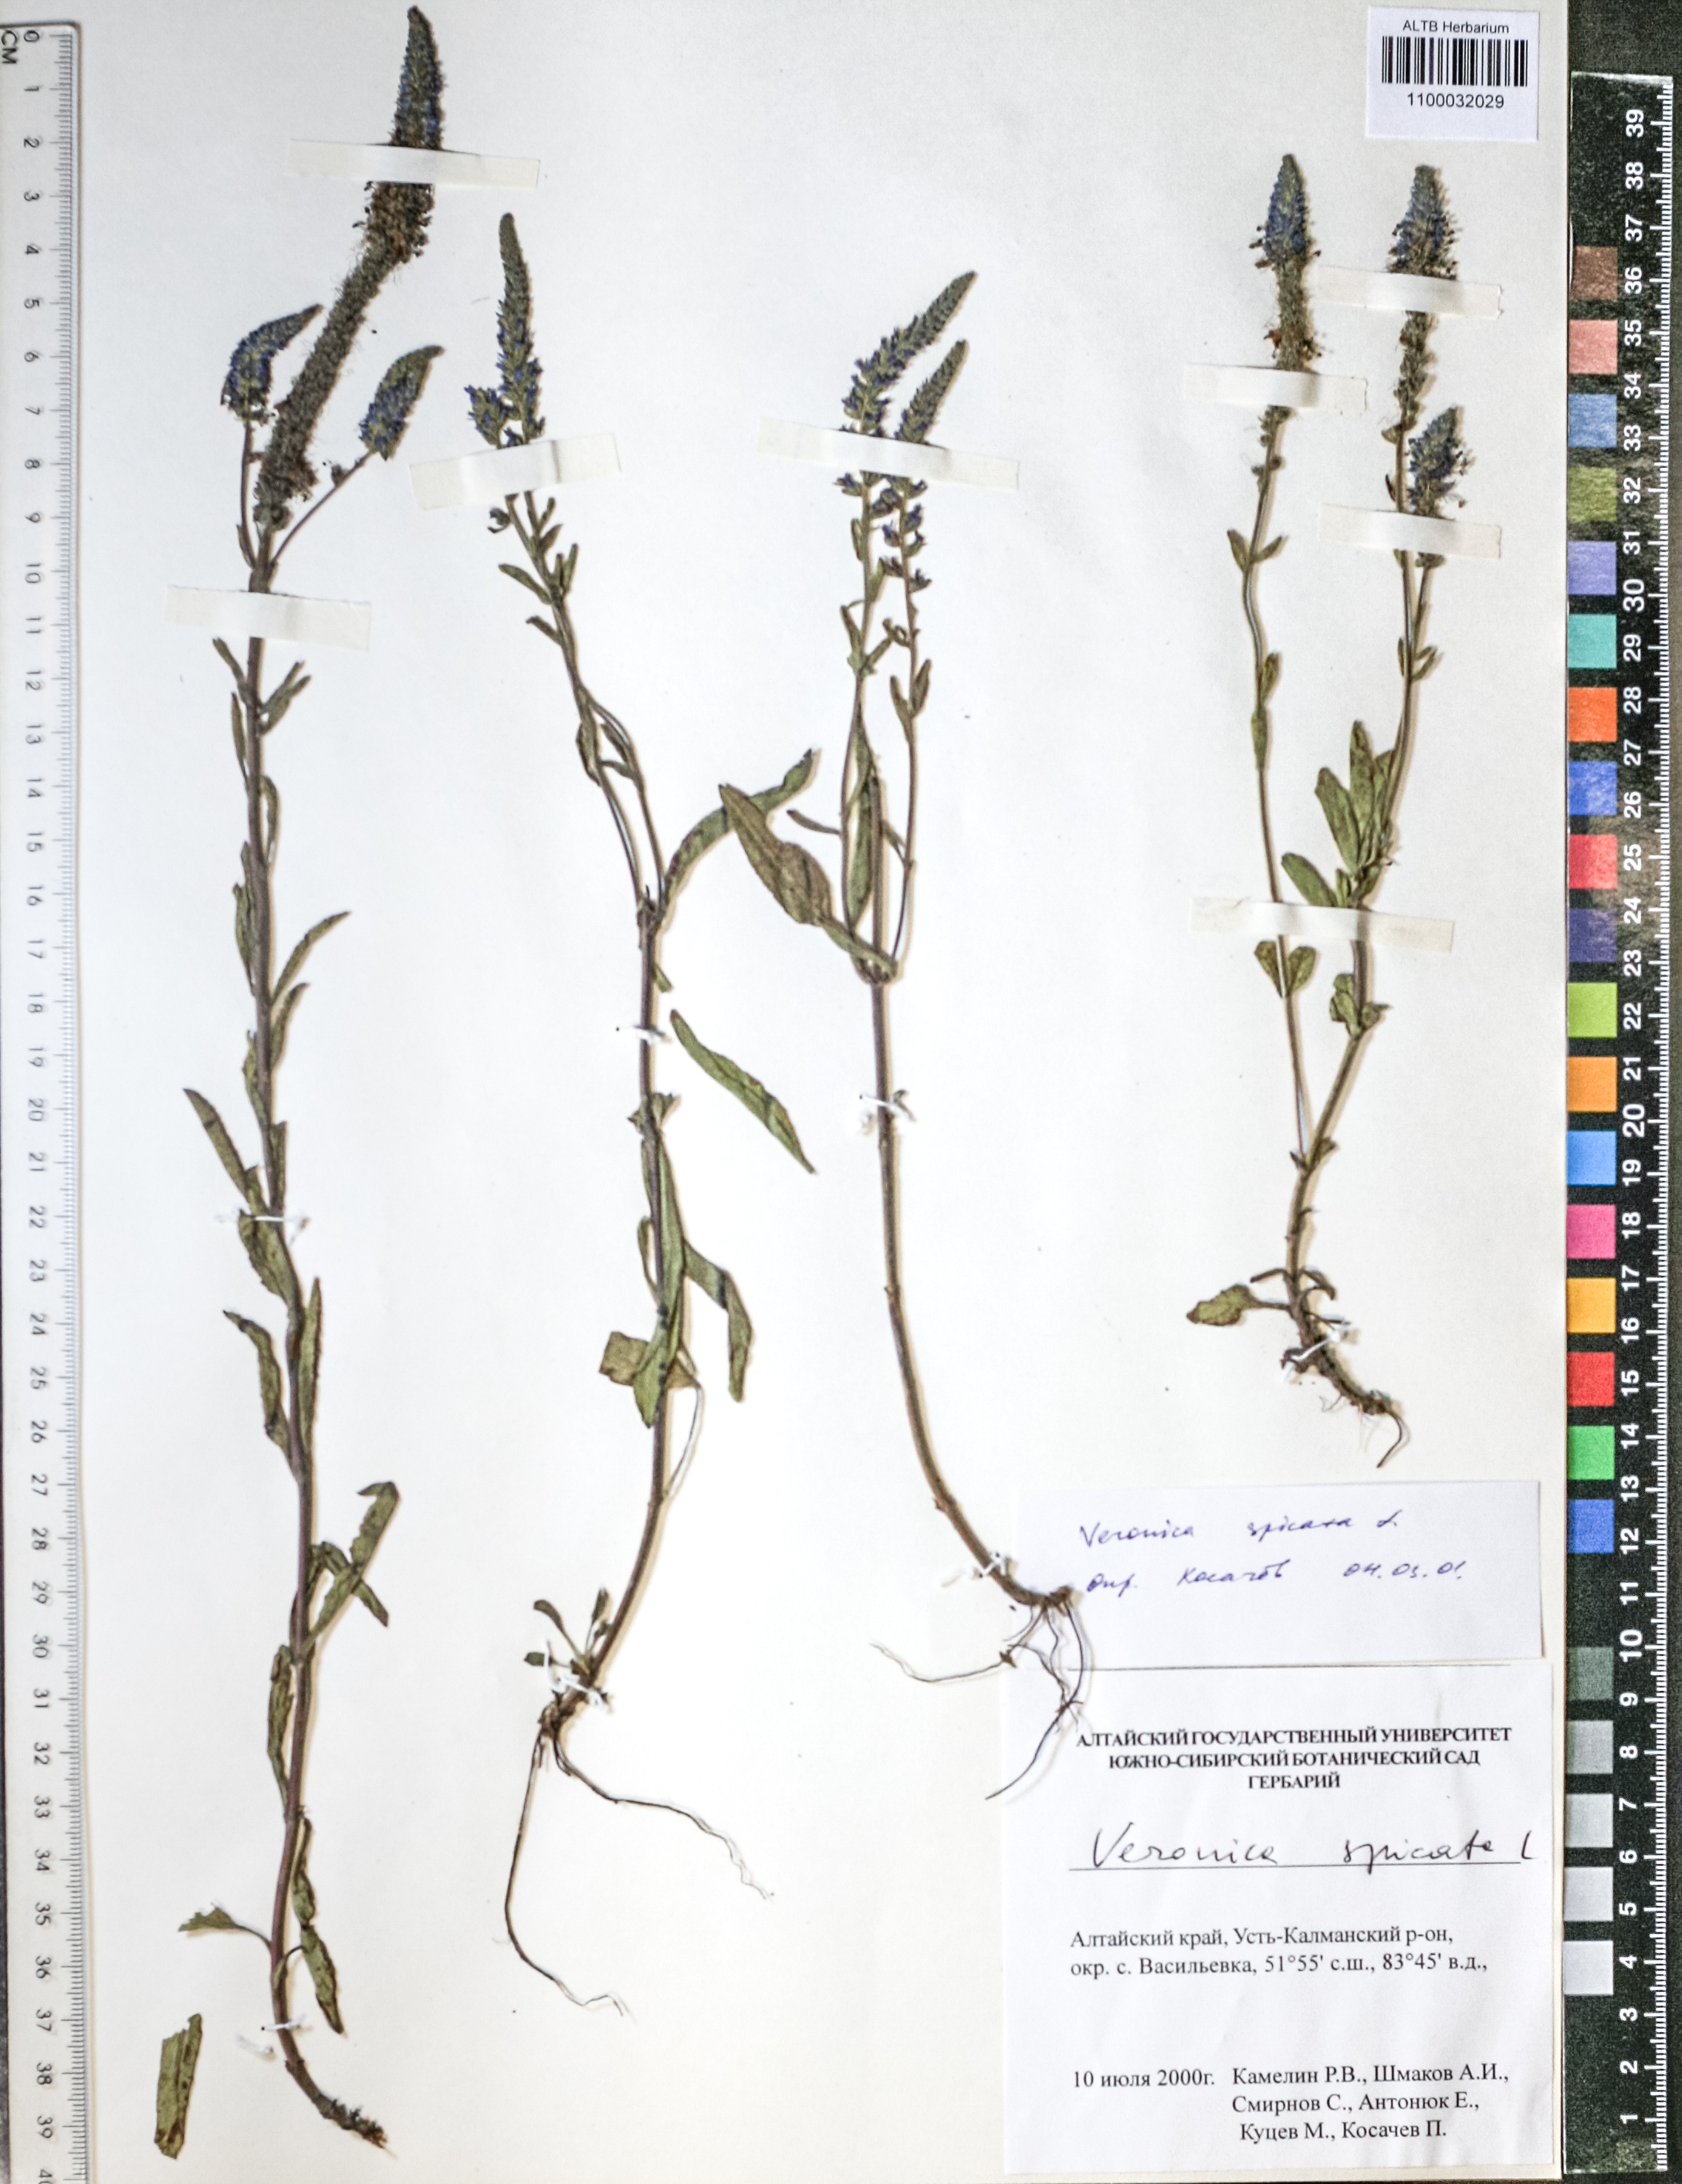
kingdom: Plantae
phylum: Tracheophyta
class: Magnoliopsida
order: Lamiales
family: Plantaginaceae
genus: Veronica
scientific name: Veronica spicata
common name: Spiked speedwell
